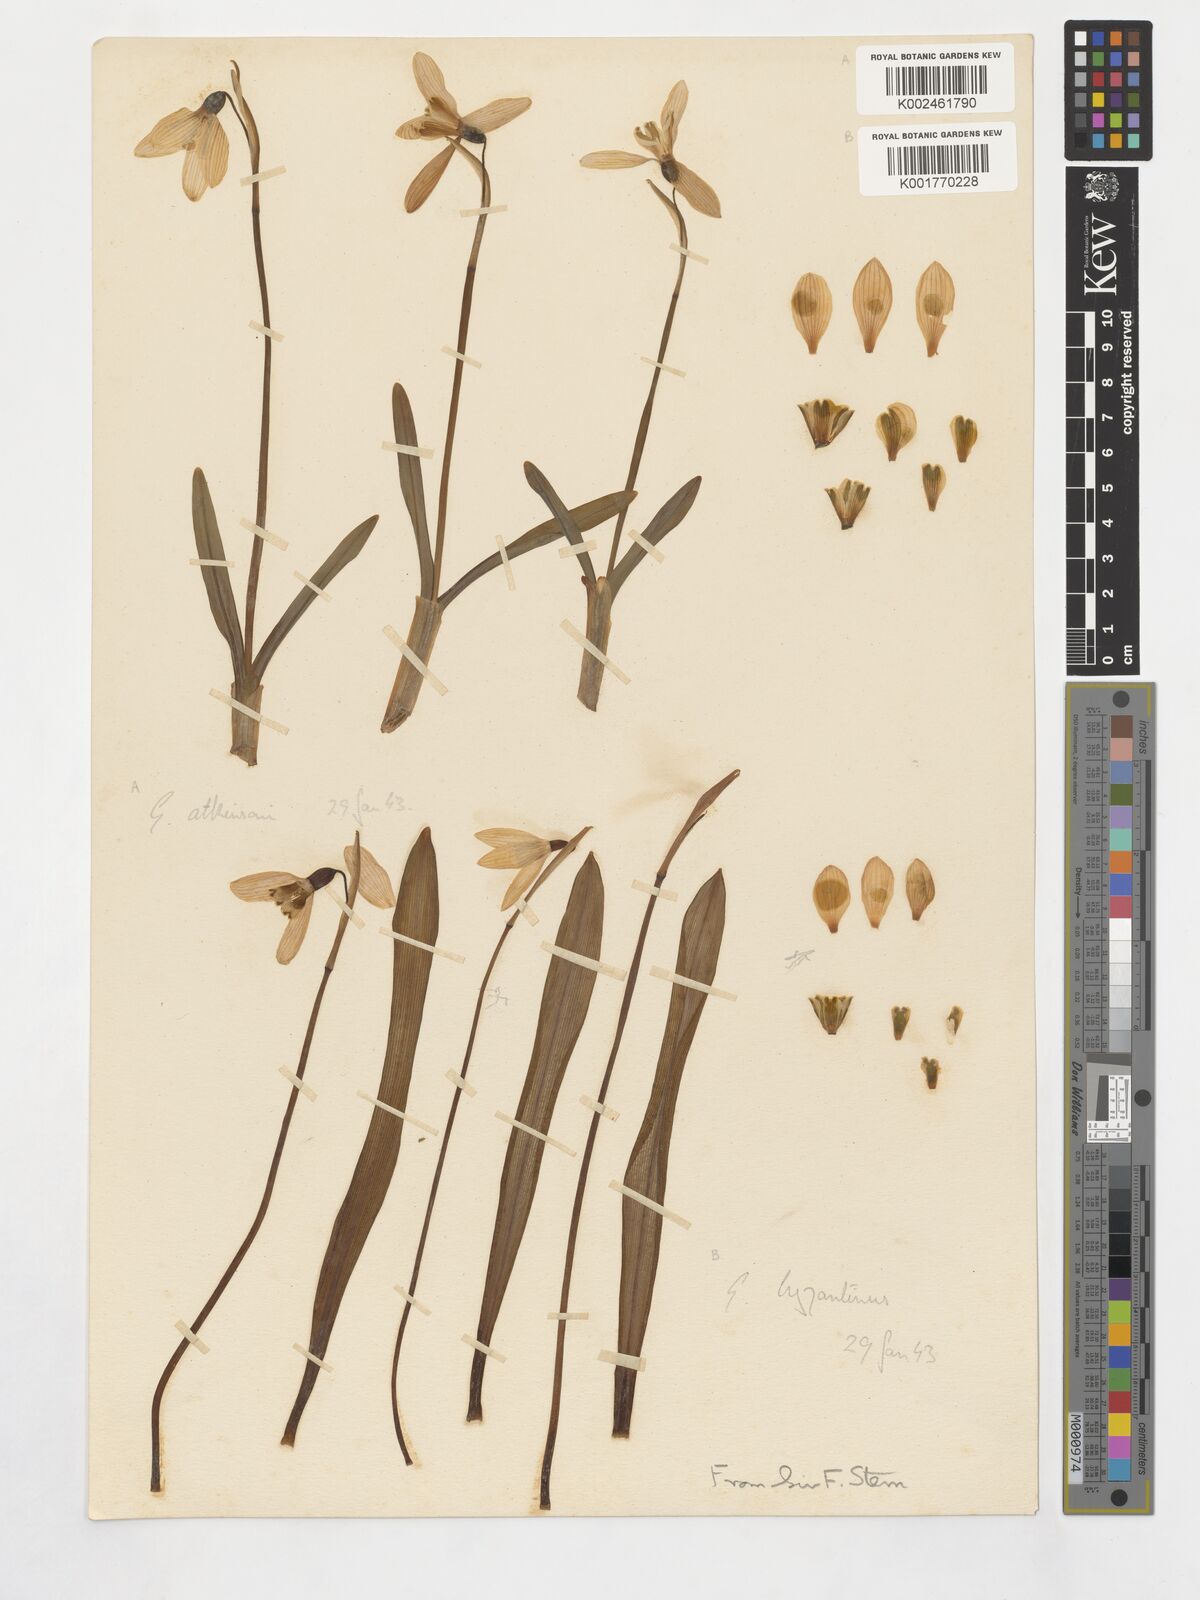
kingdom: Plantae
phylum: Tracheophyta
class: Liliopsida
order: Asparagales
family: Amaryllidaceae
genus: Galanthus
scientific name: Galanthus plicatus
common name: Pleated snowdrop
